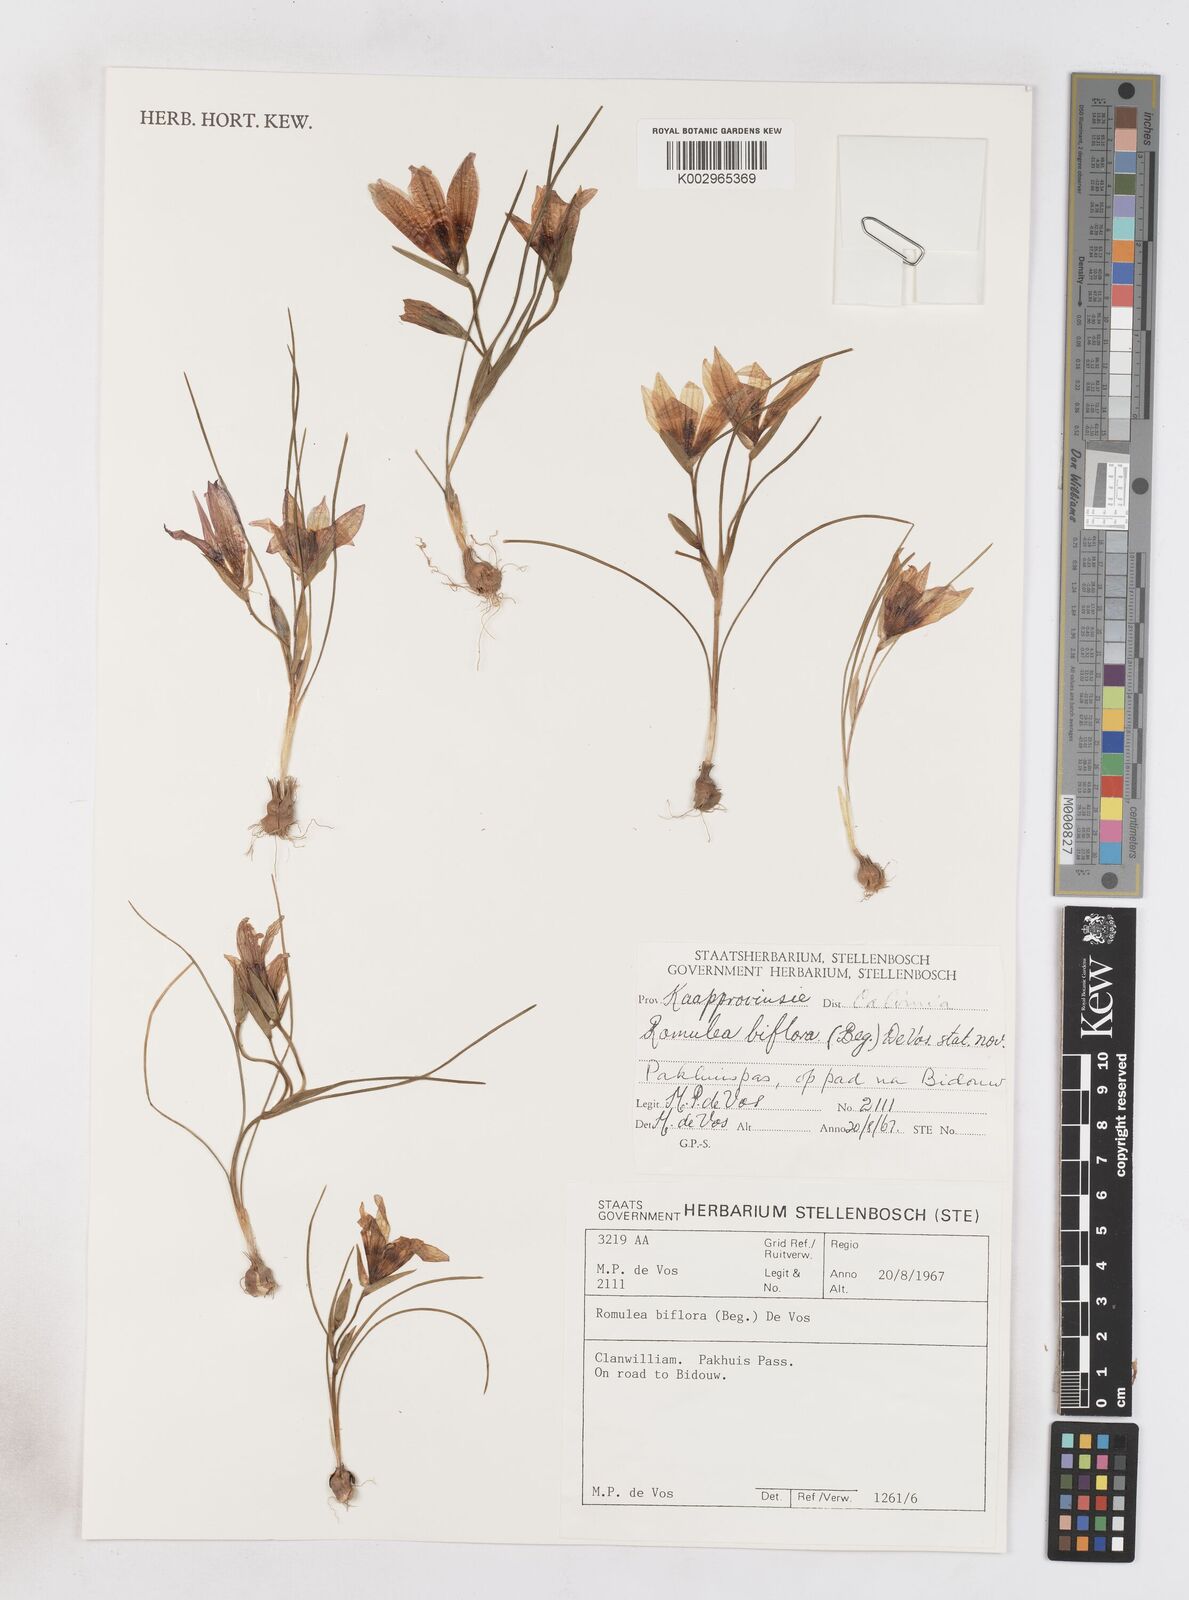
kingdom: Plantae
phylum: Tracheophyta
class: Liliopsida
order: Asparagales
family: Iridaceae
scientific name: Iridaceae
